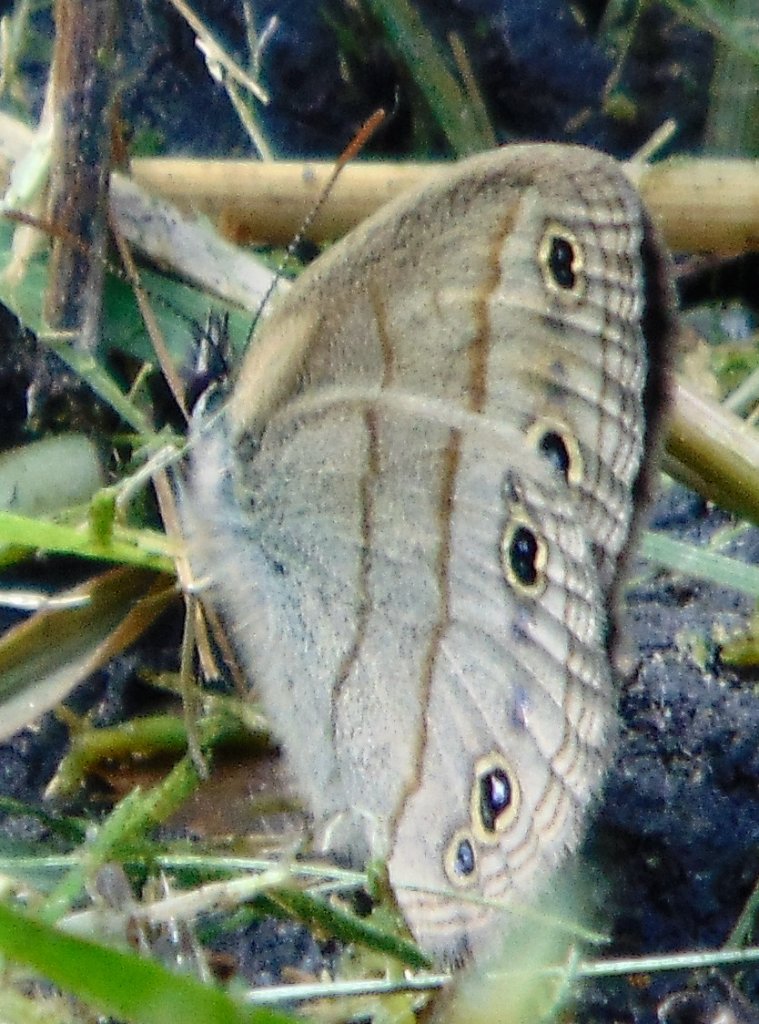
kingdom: Animalia
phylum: Arthropoda
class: Insecta
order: Lepidoptera
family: Nymphalidae
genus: Euptychia
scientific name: Euptychia cymela
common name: Little Wood Satyr
